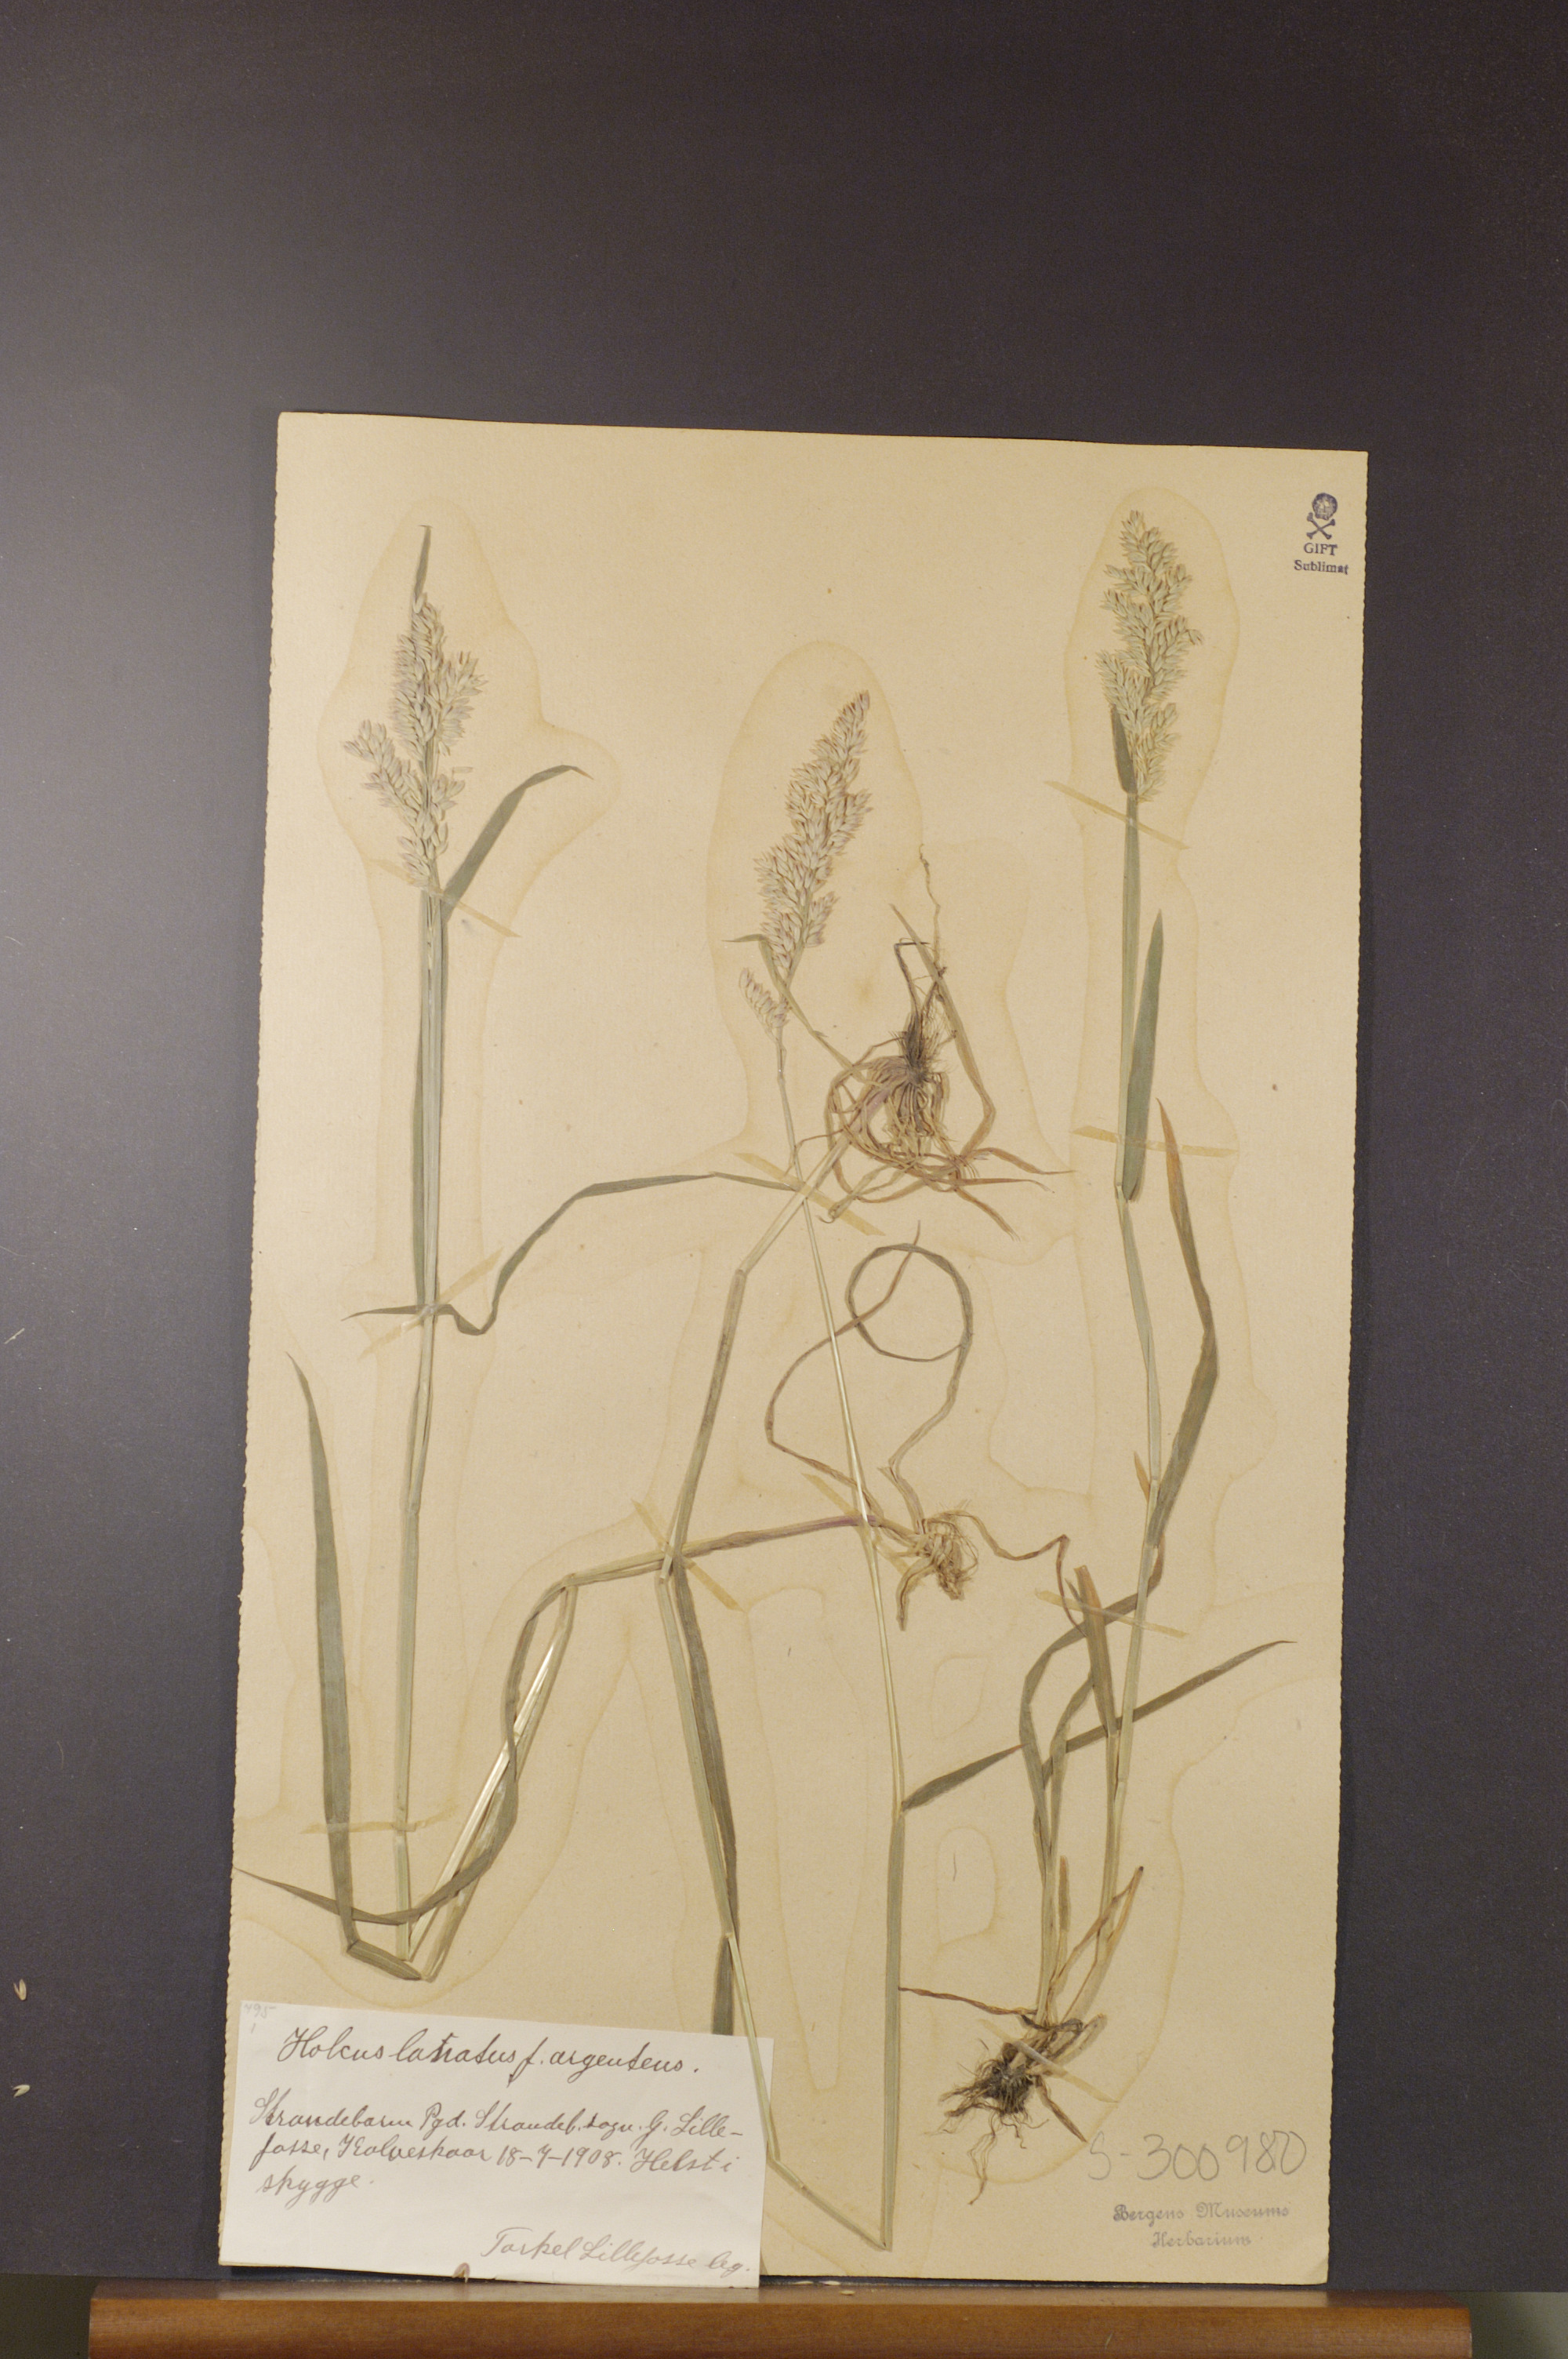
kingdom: Plantae
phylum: Tracheophyta
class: Liliopsida
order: Poales
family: Poaceae
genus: Holcus
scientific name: Holcus lanatus
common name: Yorkshire-fog
